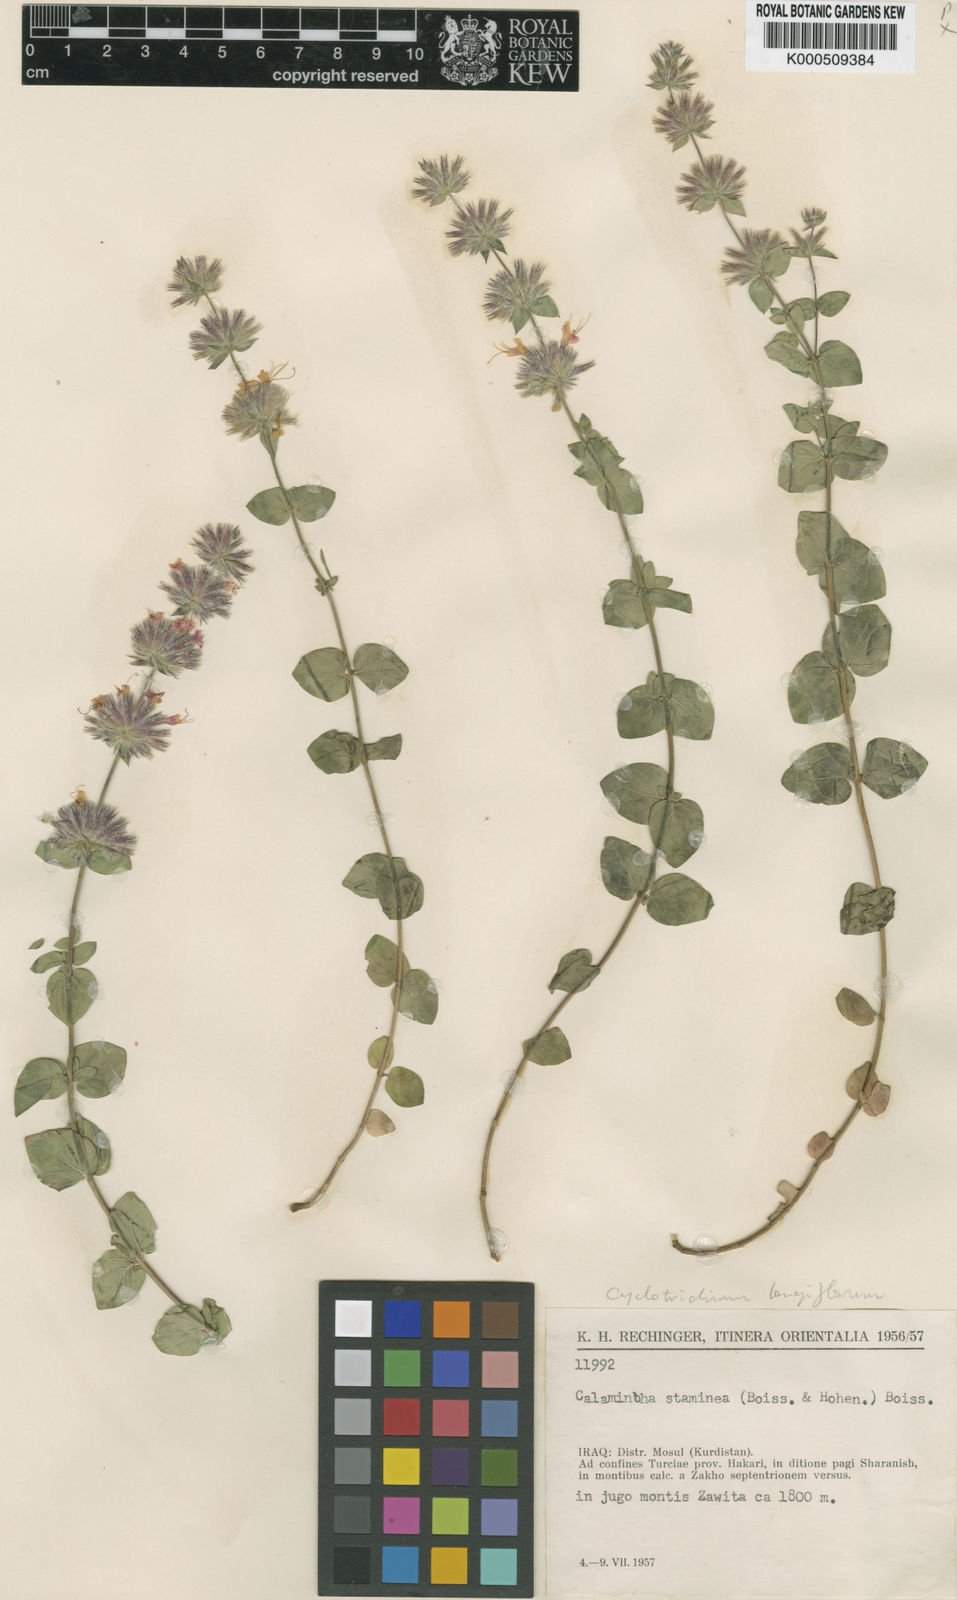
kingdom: Plantae
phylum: Tracheophyta
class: Magnoliopsida
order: Lamiales
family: Lamiaceae
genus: Cyclotrichium
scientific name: Cyclotrichium longiflorum
